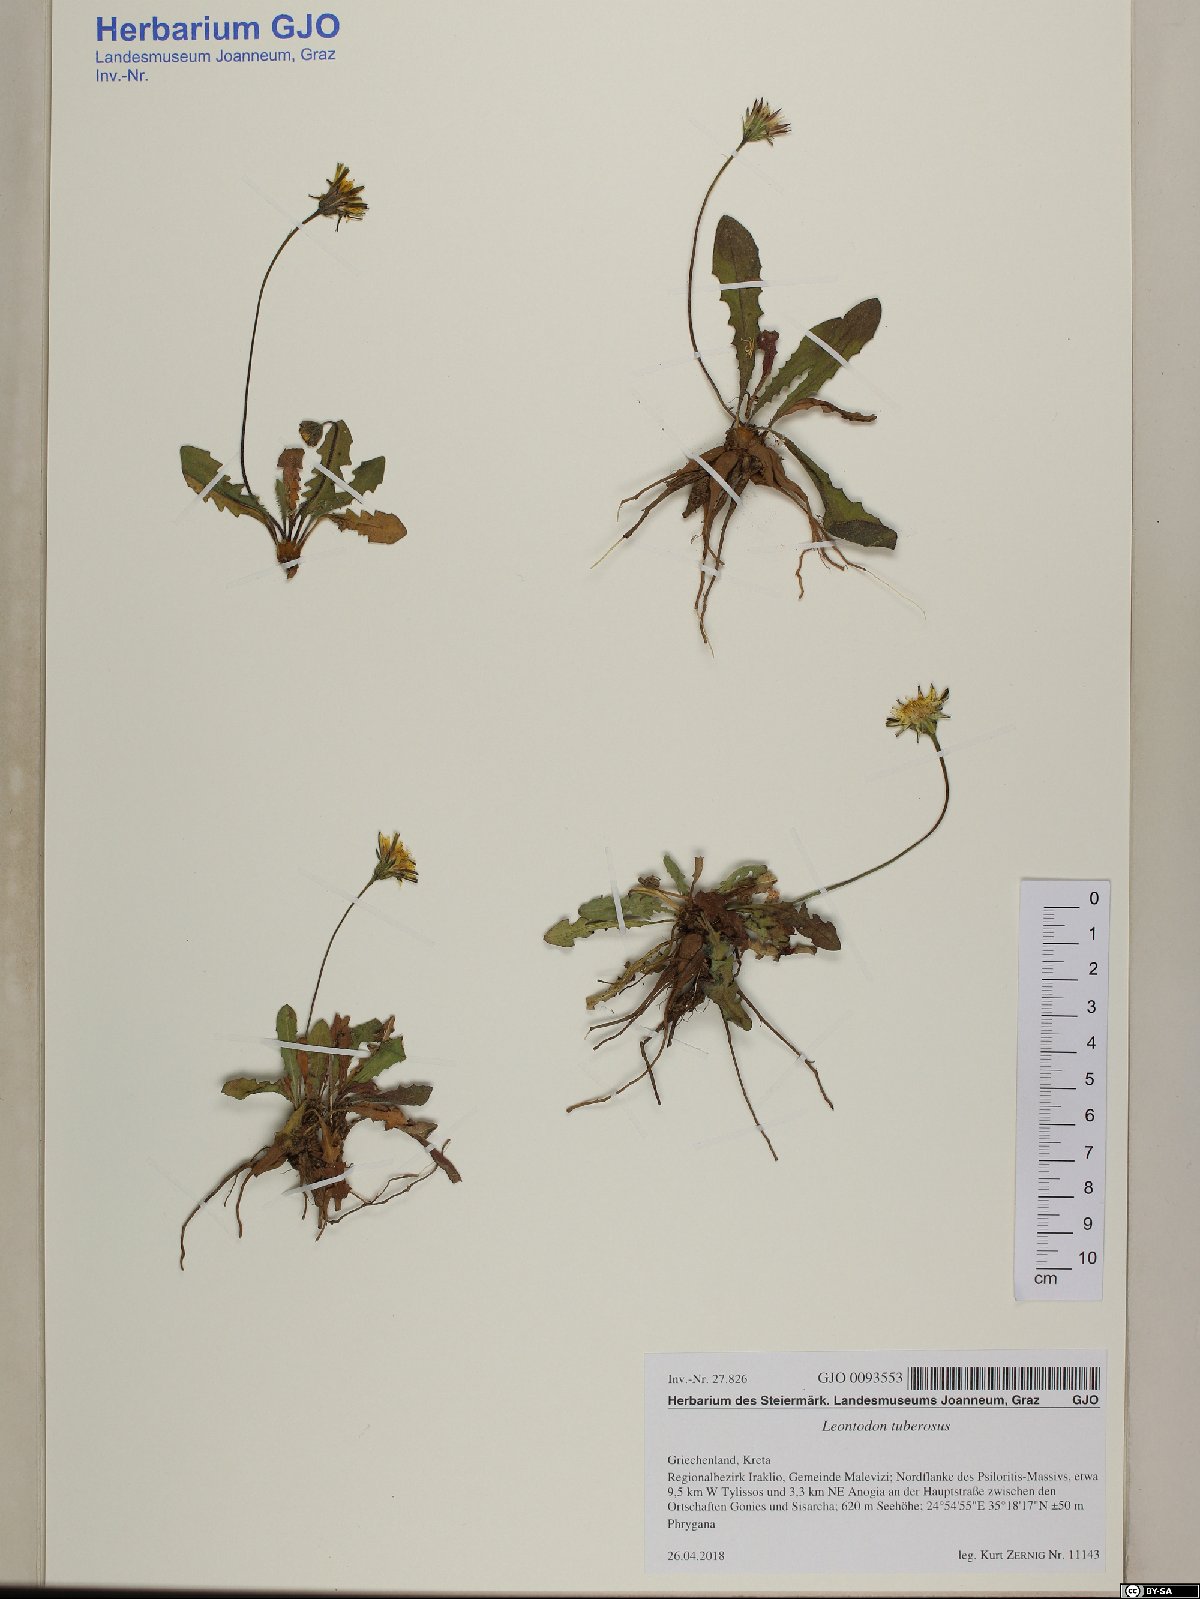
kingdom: Plantae
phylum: Tracheophyta
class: Magnoliopsida
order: Asterales
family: Asteraceae
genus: Thrincia
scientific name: Thrincia tuberosa
